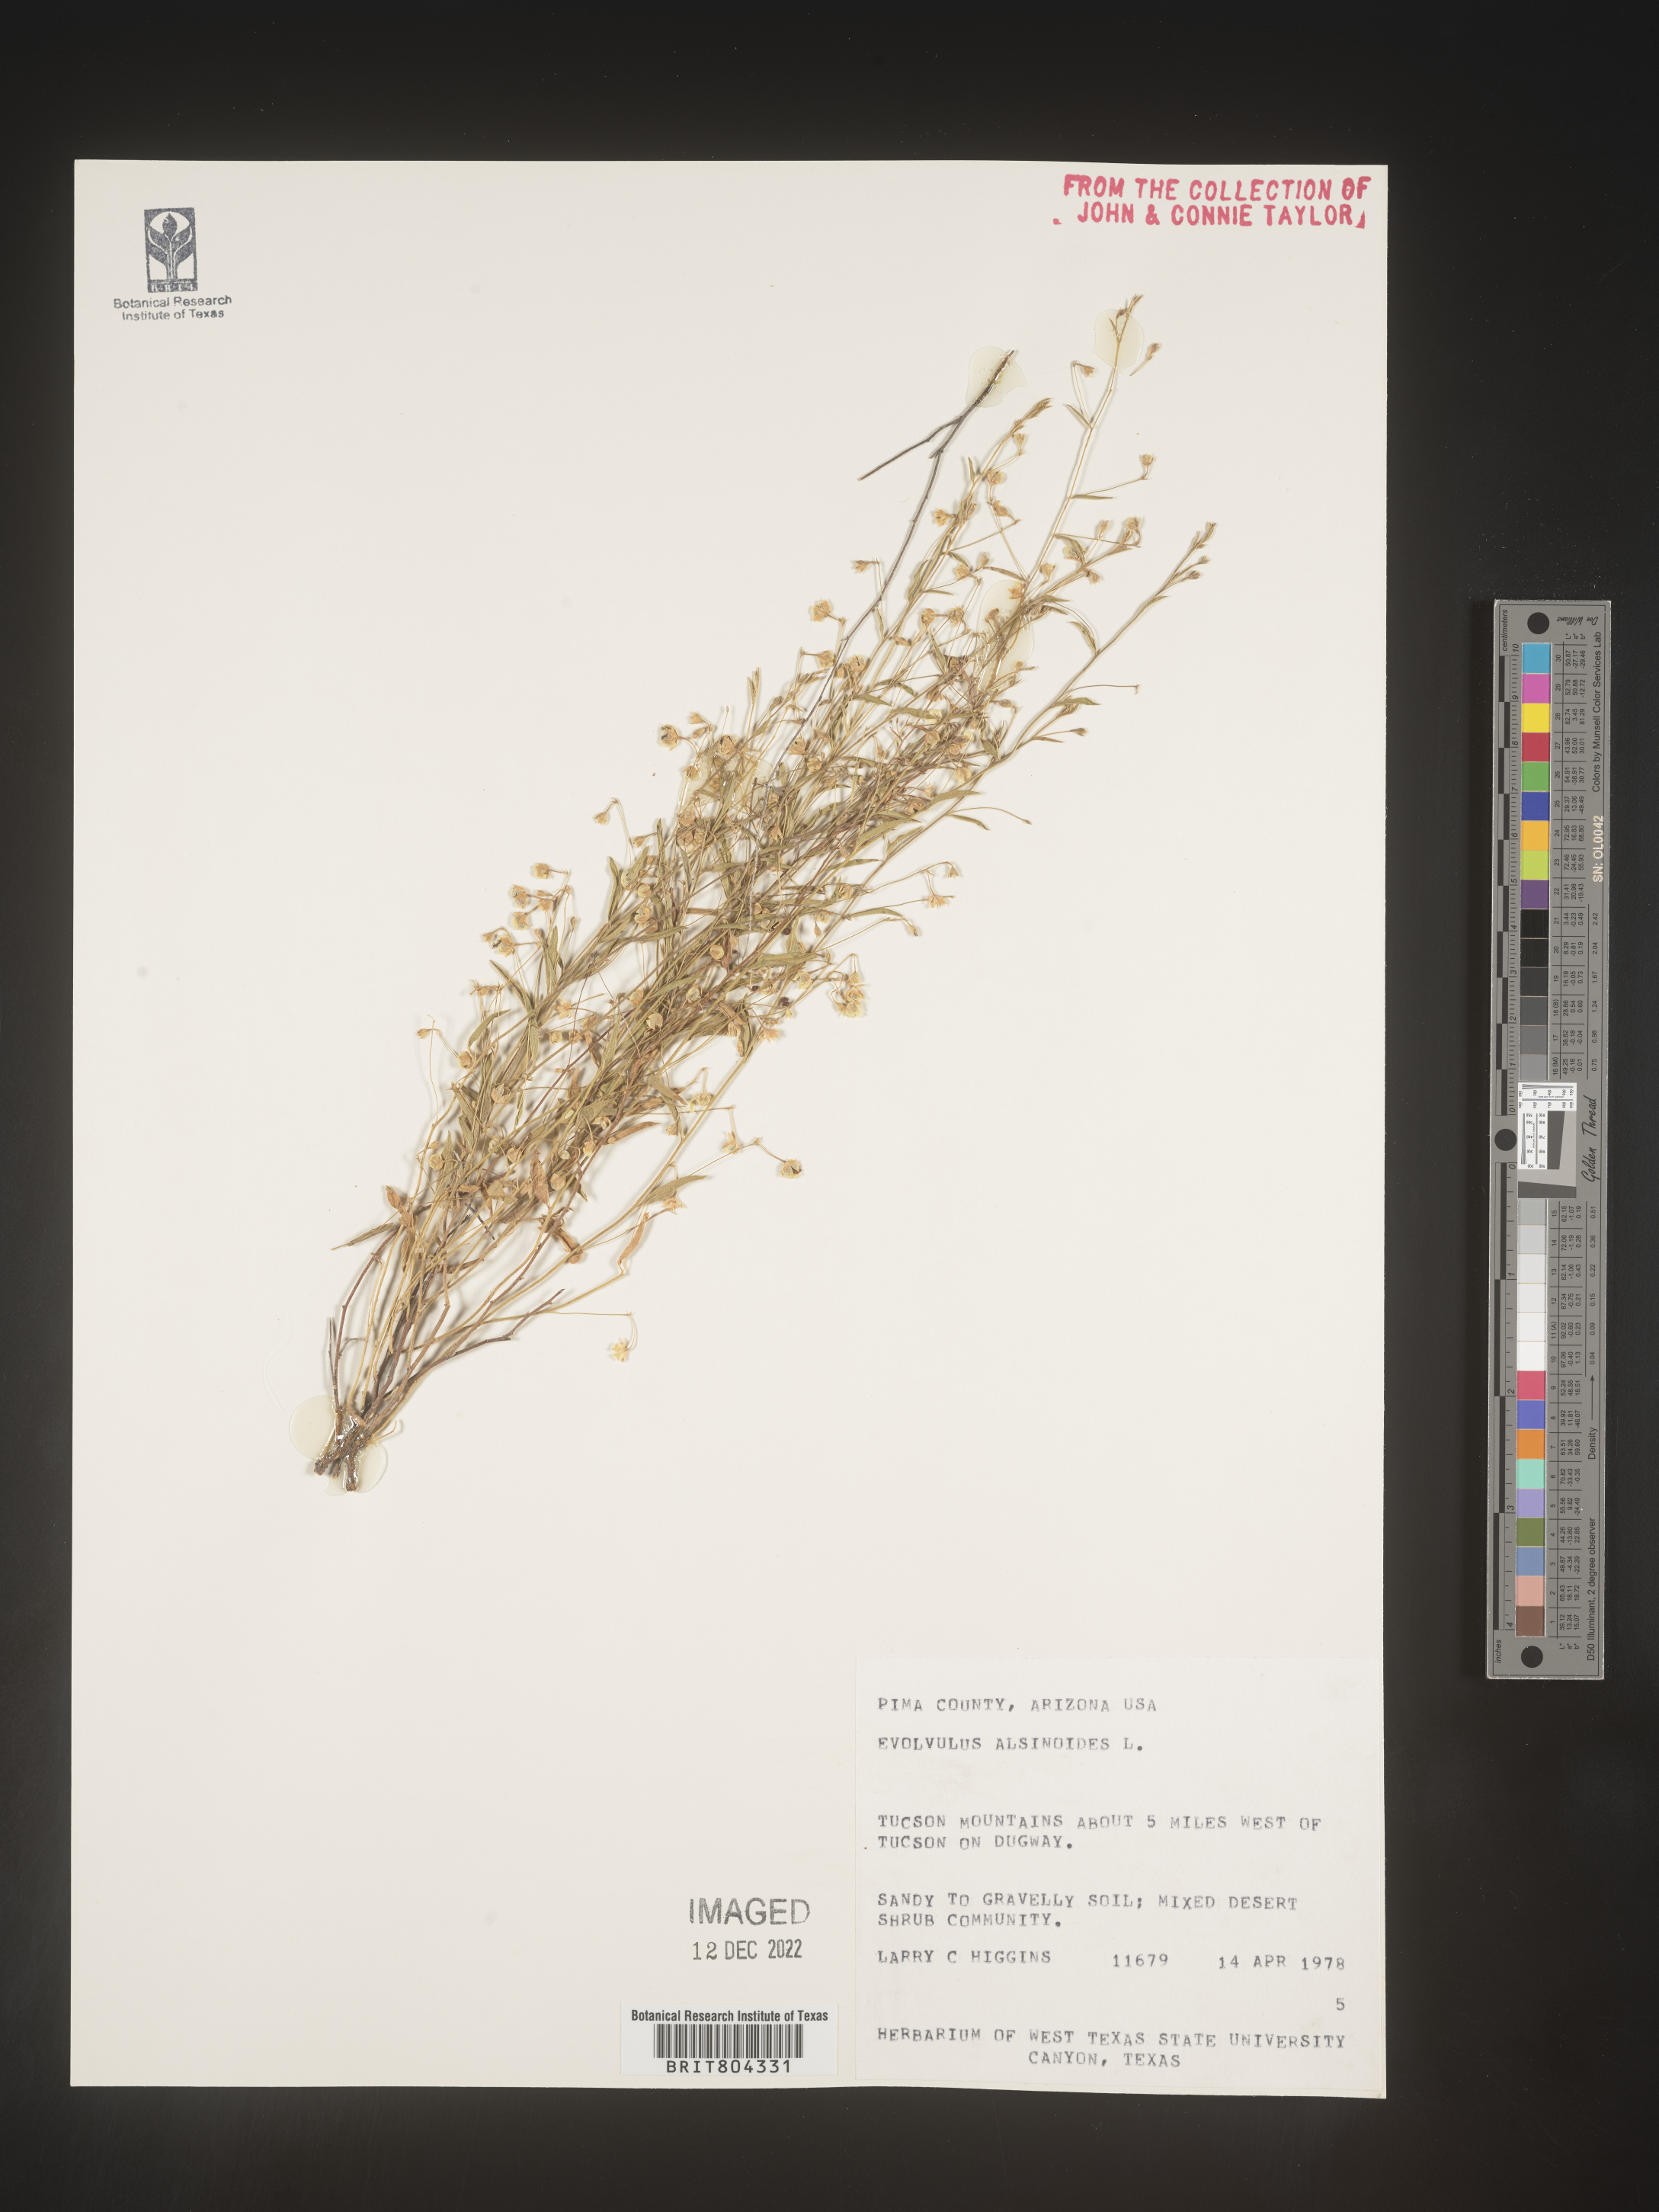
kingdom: Plantae
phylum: Tracheophyta
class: Magnoliopsida
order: Solanales
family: Convolvulaceae
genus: Evolvulus
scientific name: Evolvulus arizonicus
